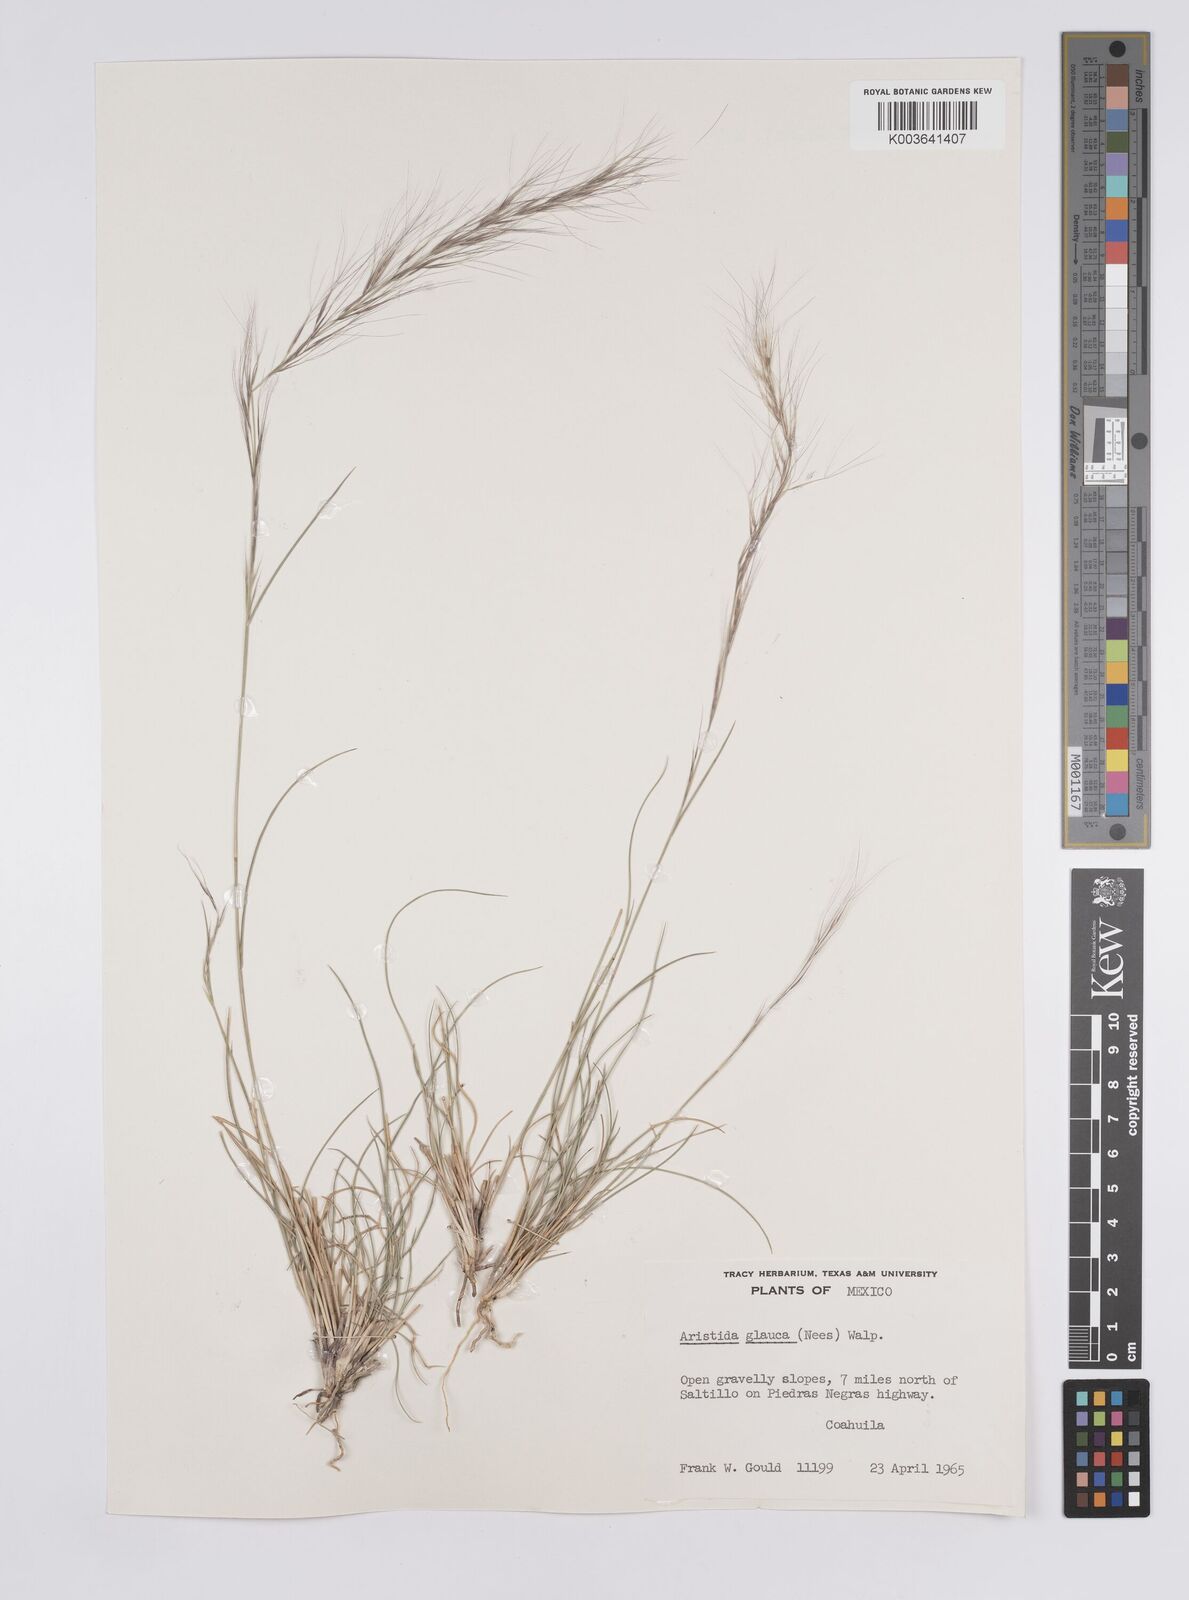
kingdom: Plantae
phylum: Tracheophyta
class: Liliopsida
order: Poales
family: Poaceae
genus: Aristida
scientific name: Aristida purpurea
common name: Purple threeawn
